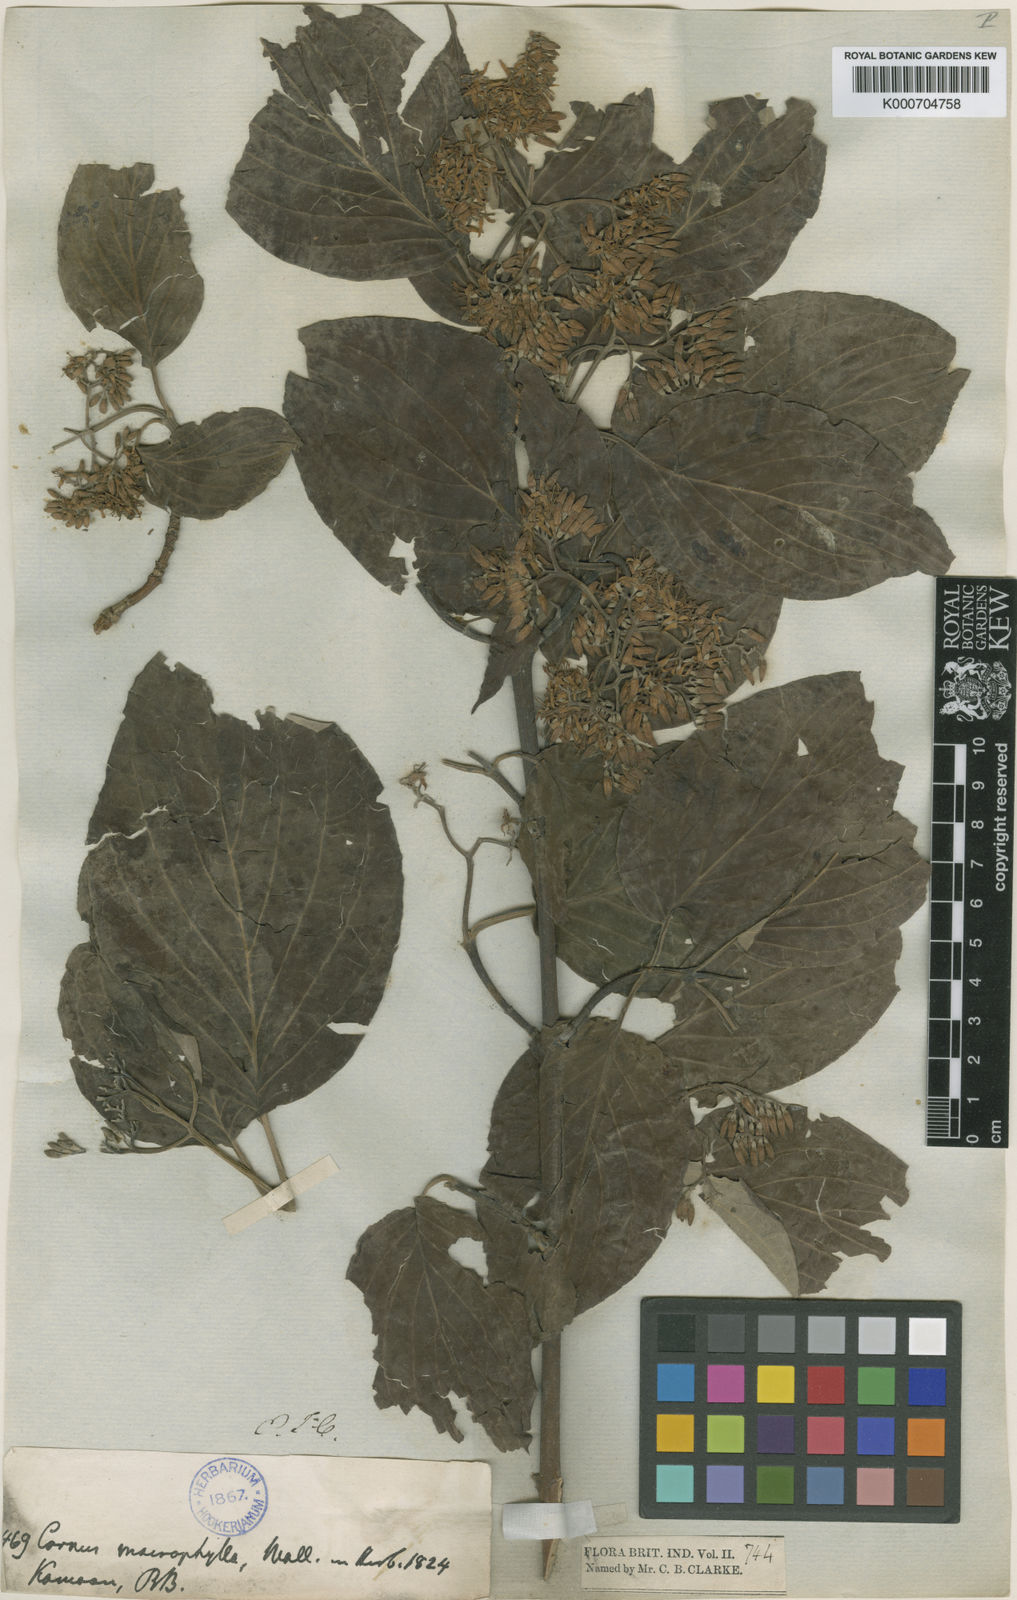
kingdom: Plantae
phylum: Tracheophyta
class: Magnoliopsida
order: Cornales
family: Cornaceae
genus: Cornus
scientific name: Cornus macrophylla
